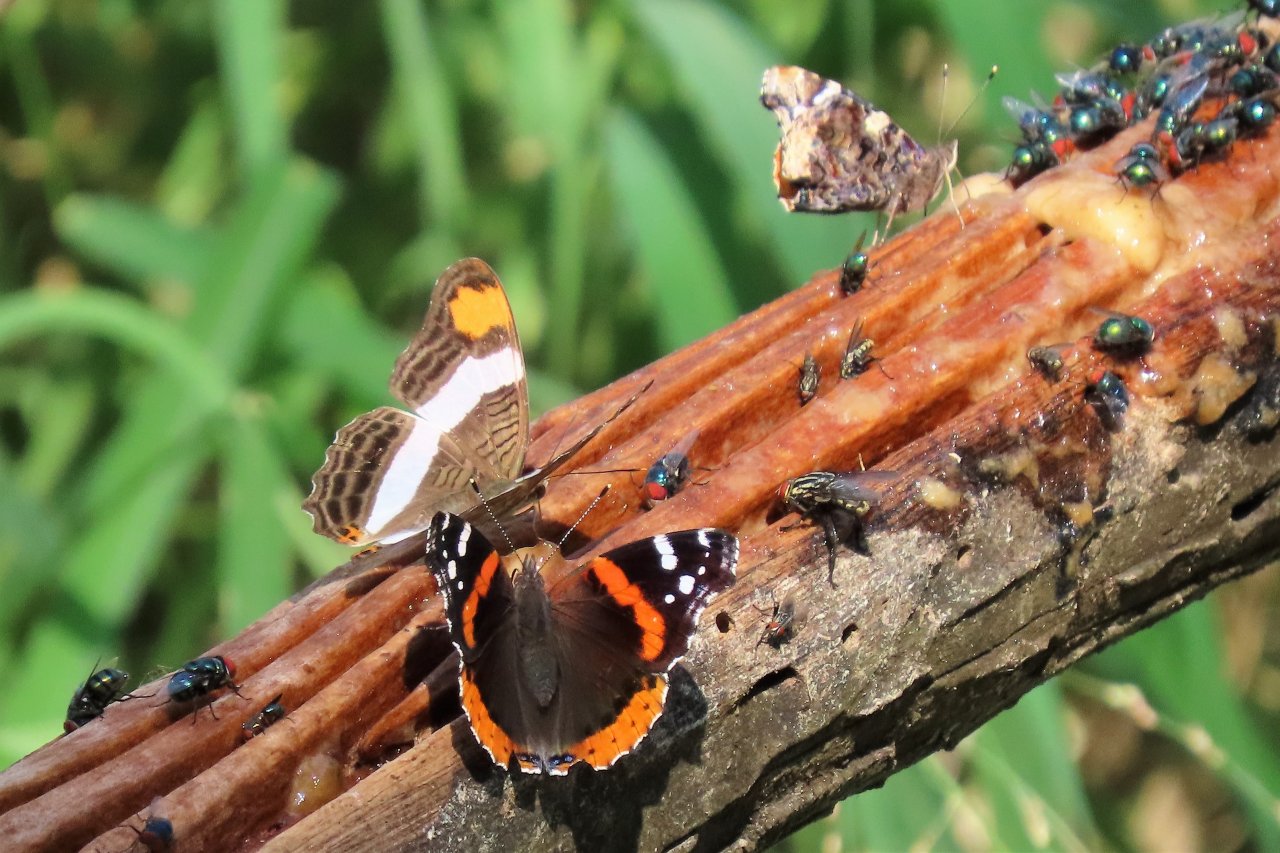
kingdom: Animalia
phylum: Arthropoda
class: Insecta
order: Lepidoptera
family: Nymphalidae
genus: Vanessa
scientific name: Vanessa atalanta
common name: Red Admiral
